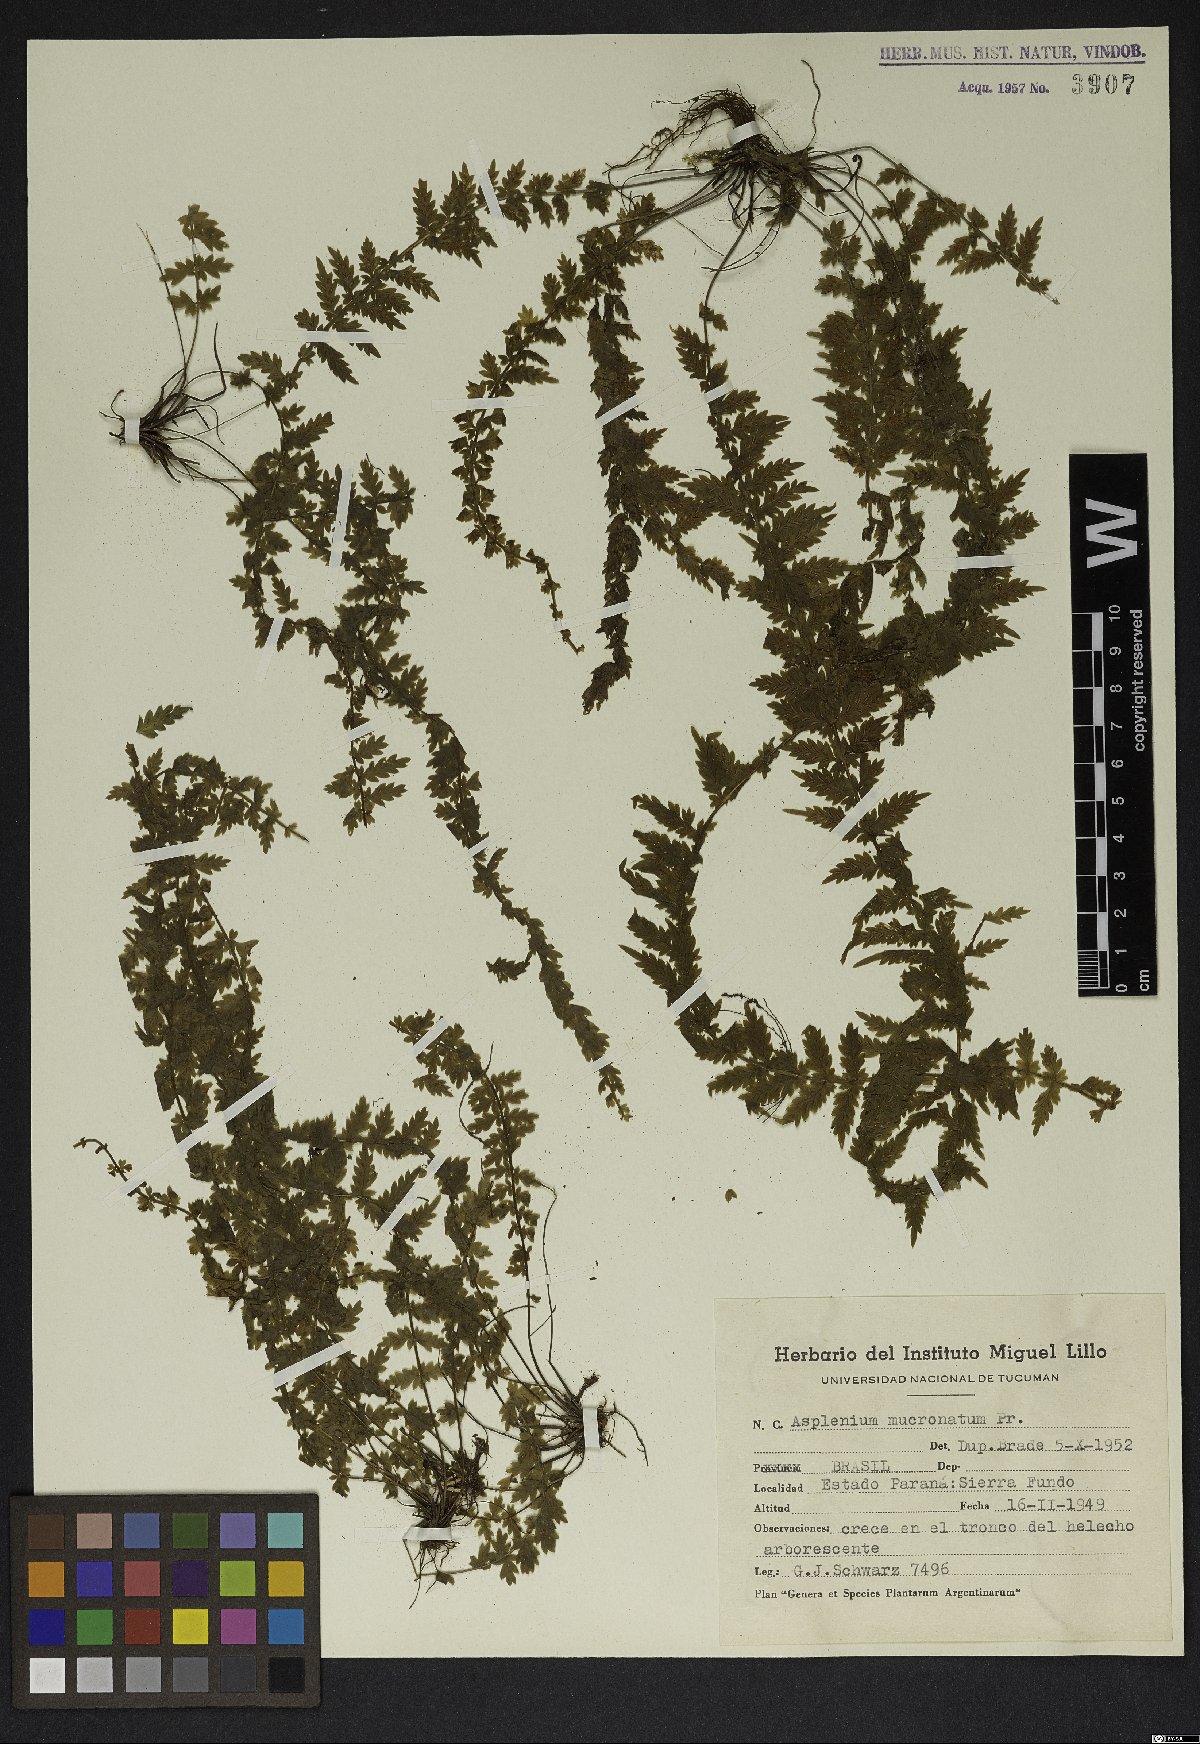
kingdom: Plantae
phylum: Tracheophyta
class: Polypodiopsida
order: Polypodiales
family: Aspleniaceae
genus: Asplenium
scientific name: Asplenium mucronatum
